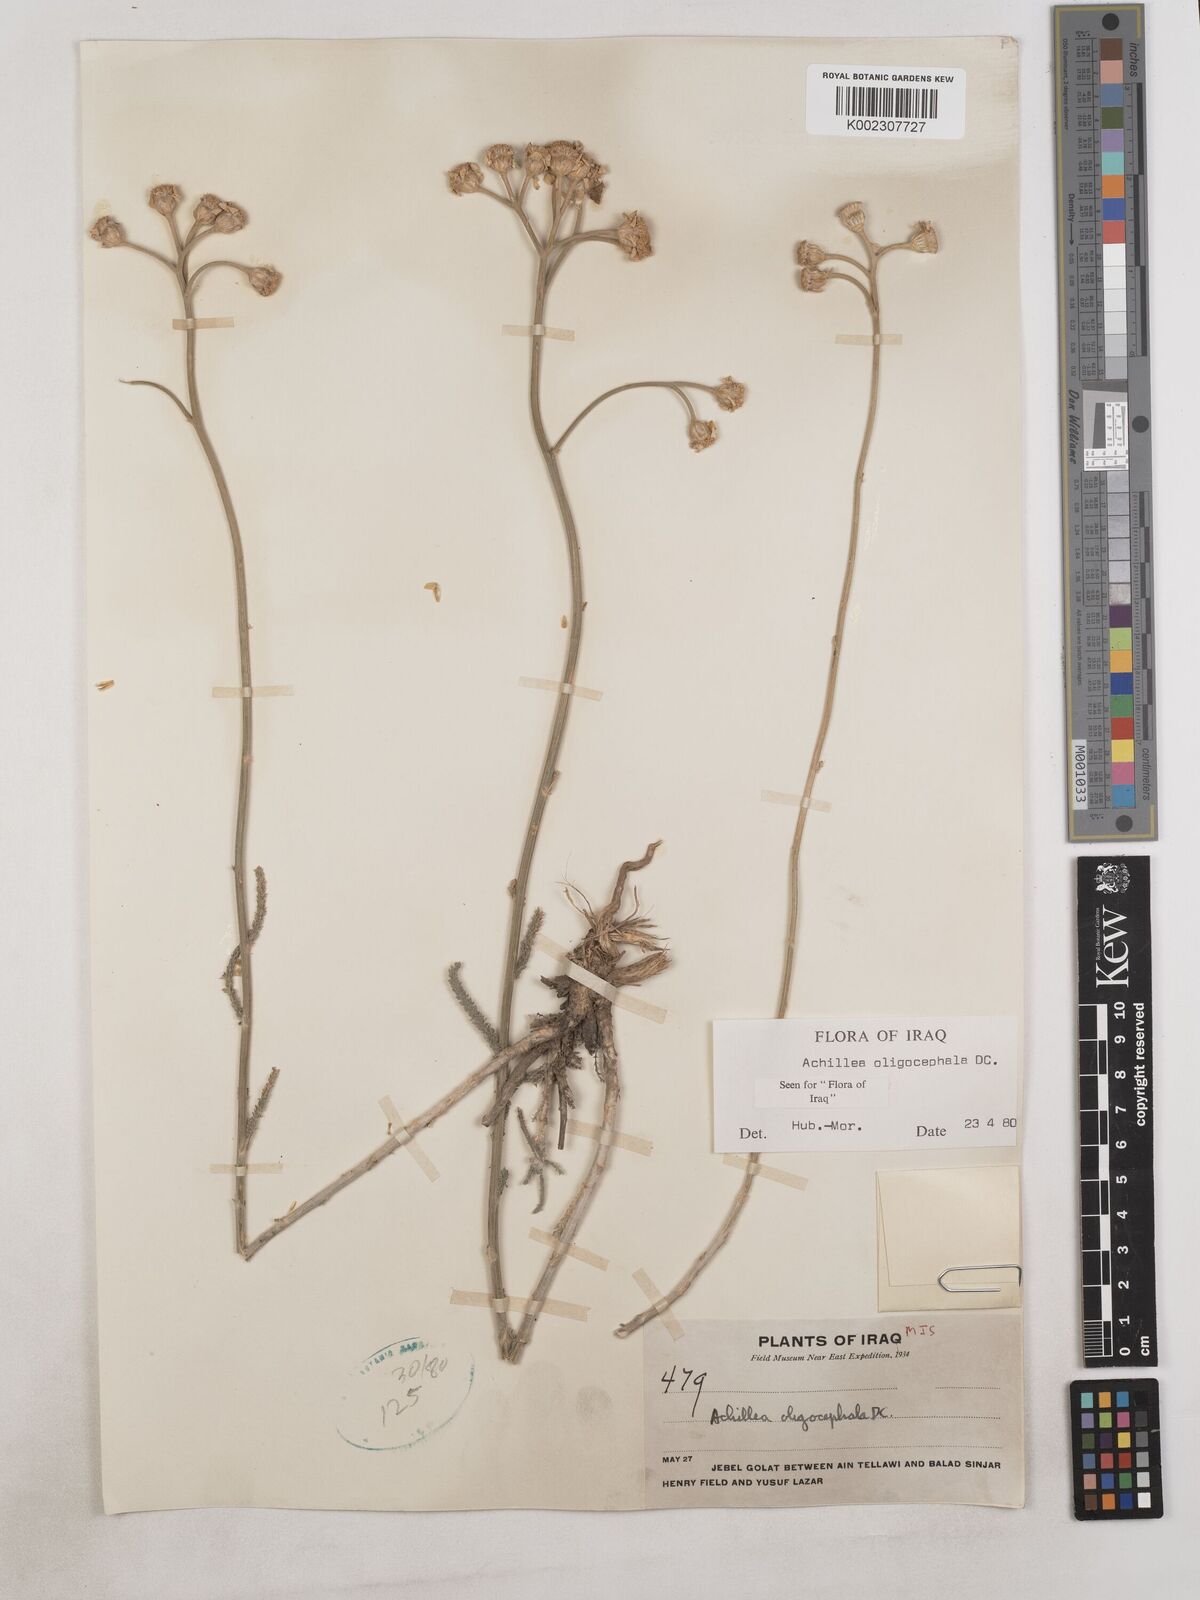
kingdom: Plantae
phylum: Tracheophyta
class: Magnoliopsida
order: Asterales
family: Asteraceae
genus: Achillea
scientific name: Achillea oligocephala
